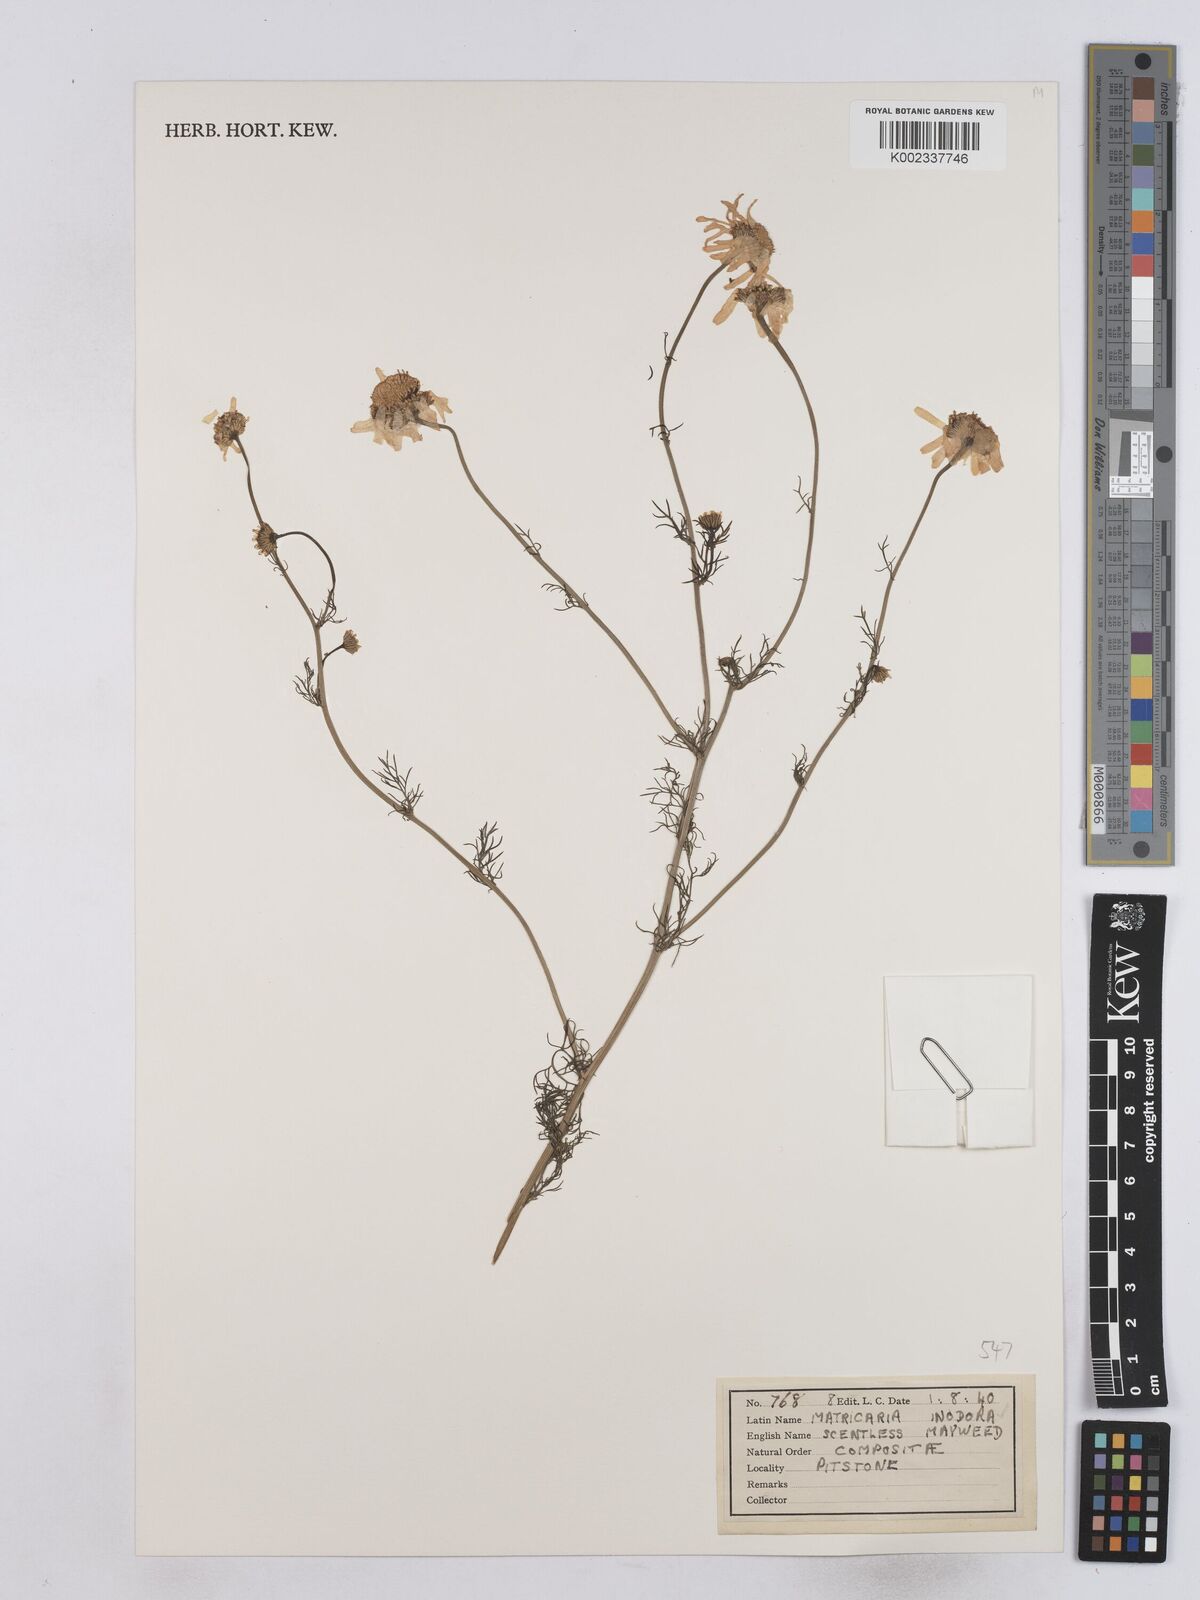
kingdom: Plantae
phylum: Tracheophyta
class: Magnoliopsida
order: Asterales
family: Asteraceae
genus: Matricaria
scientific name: Matricaria chamomilla
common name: Scented mayweed
